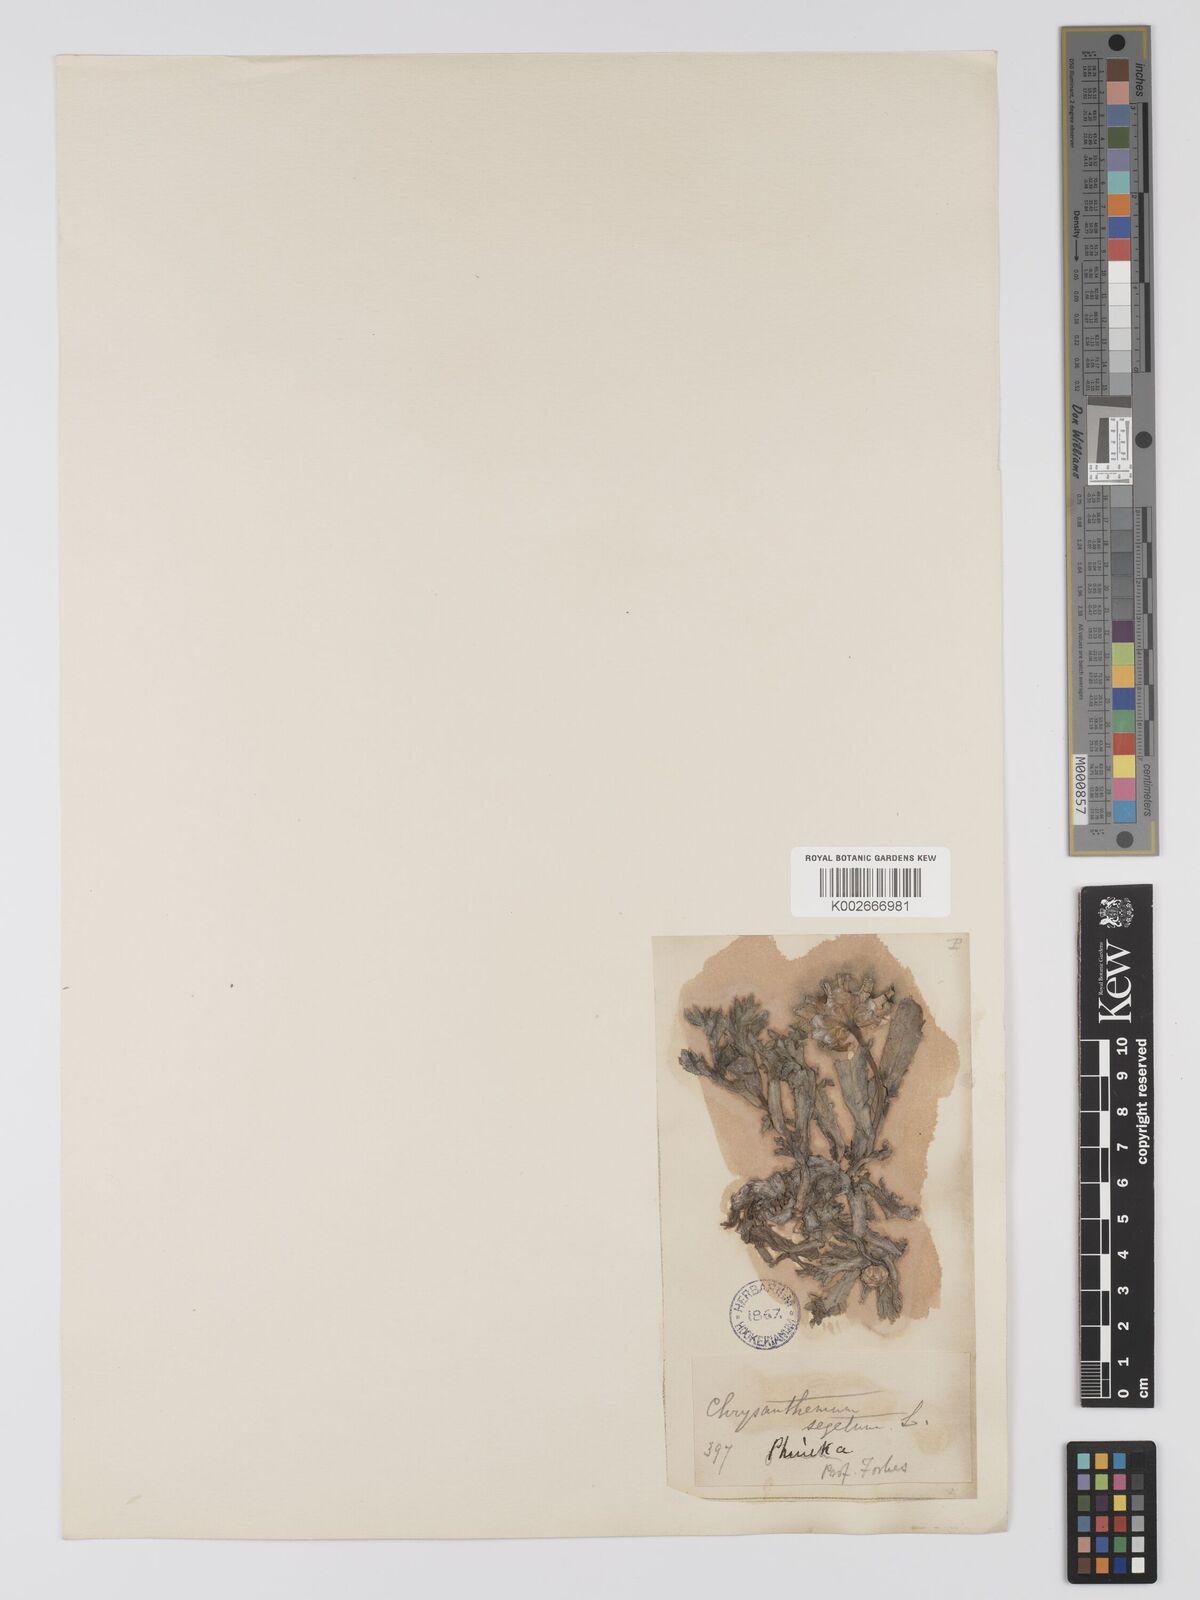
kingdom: Plantae
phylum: Tracheophyta
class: Magnoliopsida
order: Asterales
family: Asteraceae
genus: Glebionis
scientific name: Glebionis segetum
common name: Corndaisy
